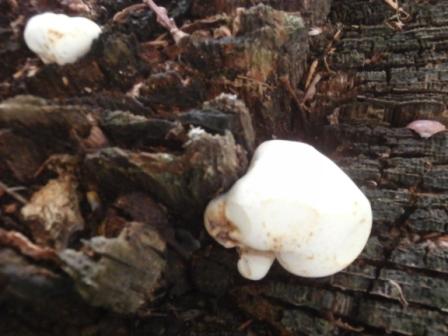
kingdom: Fungi
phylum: Basidiomycota
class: Agaricomycetes
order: Polyporales
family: Fomitopsidaceae
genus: Buglossoporus
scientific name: Buglossoporus quercinus
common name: egetunge
